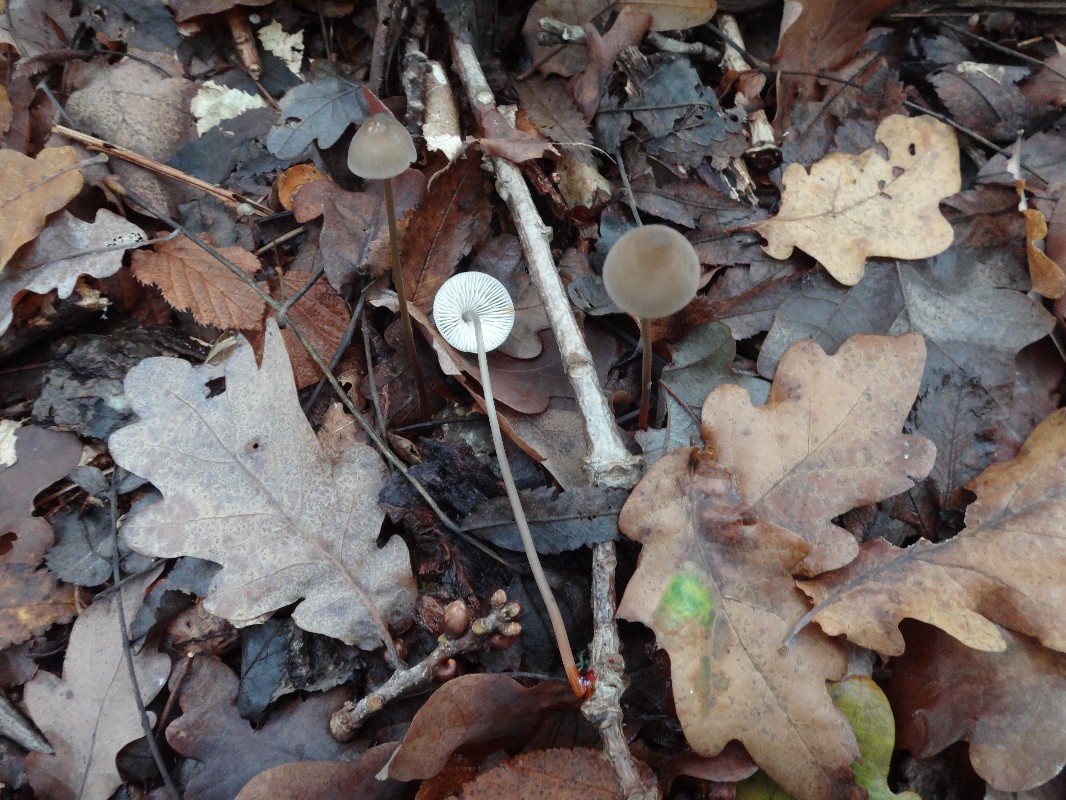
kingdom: Fungi
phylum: Basidiomycota
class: Agaricomycetes
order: Agaricales
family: Mycenaceae
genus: Mycena
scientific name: Mycena crocata
